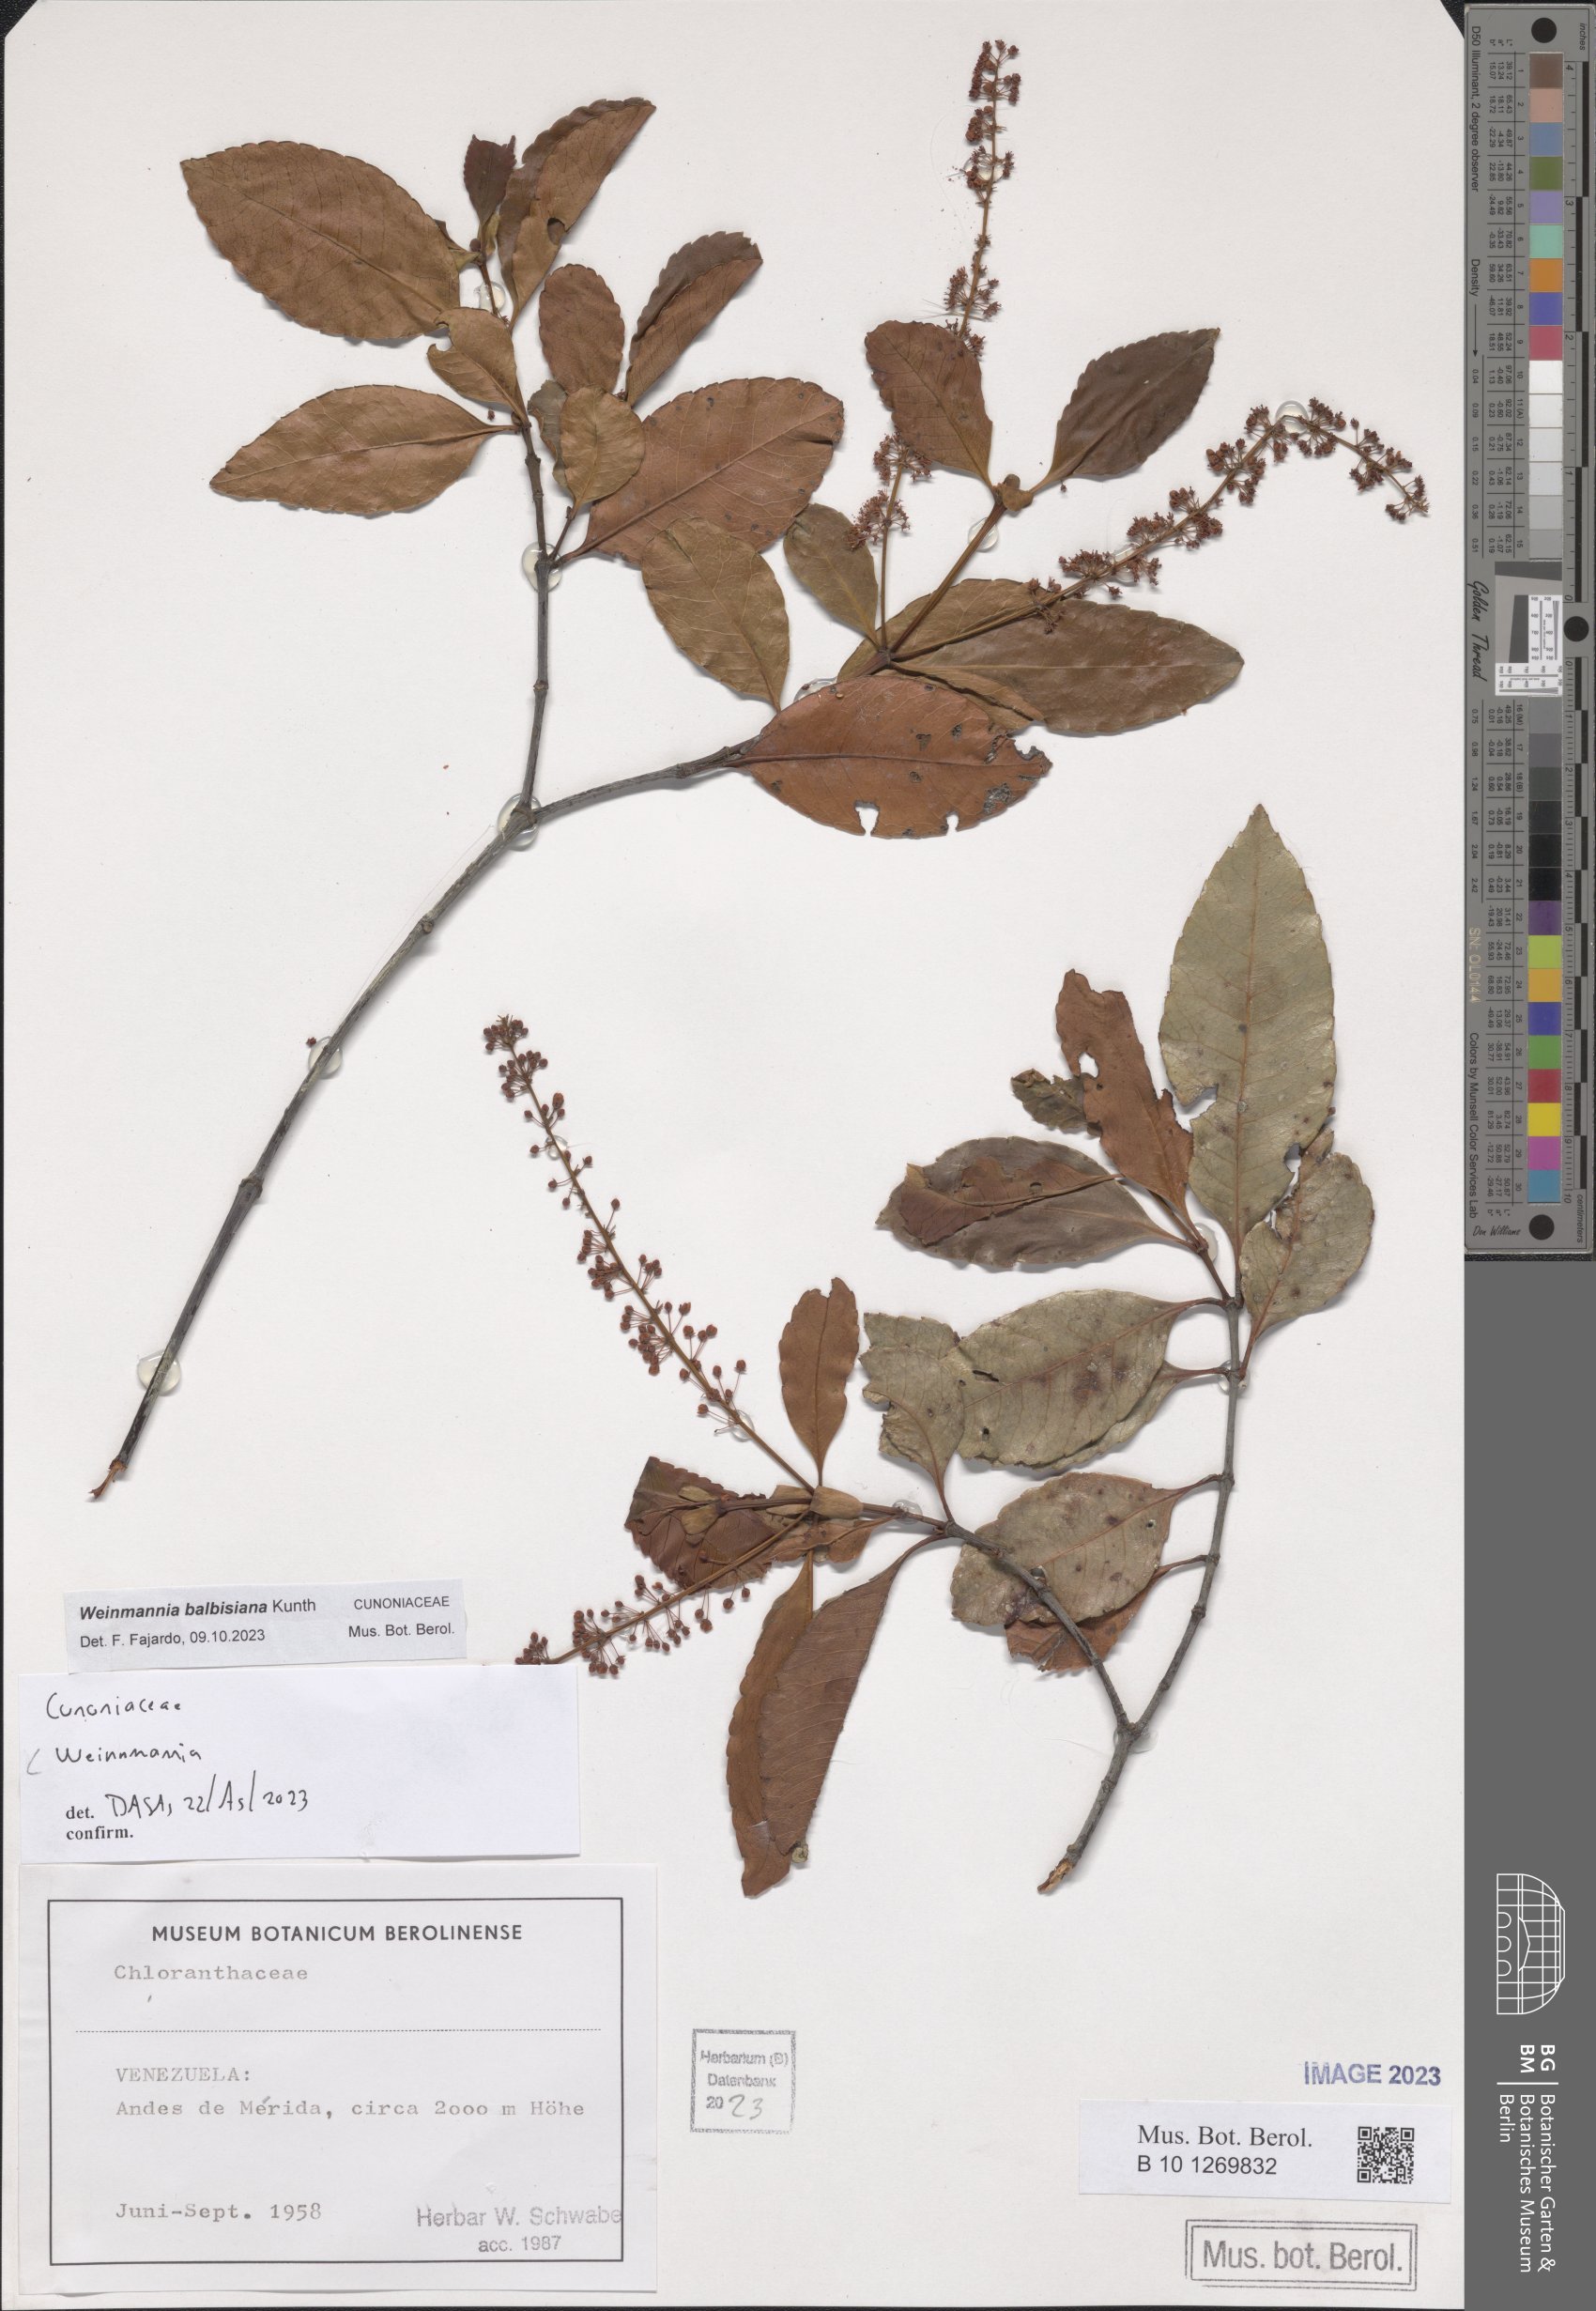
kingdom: Plantae
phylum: Tracheophyta
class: Magnoliopsida
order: Oxalidales
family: Cunoniaceae
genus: Weinmannia
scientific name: Weinmannia balbisana
